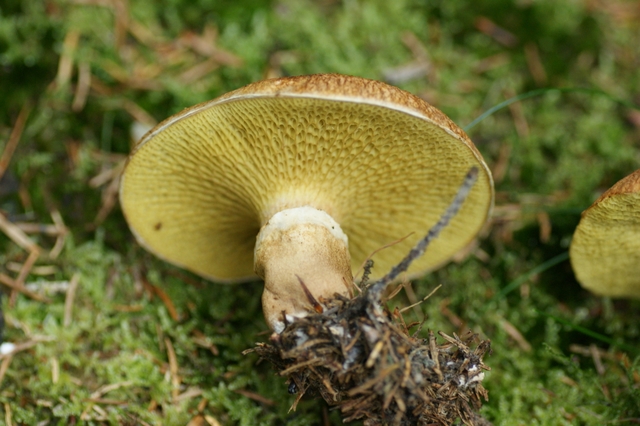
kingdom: Fungi
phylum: Basidiomycota
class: Agaricomycetes
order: Boletales
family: Suillaceae
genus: Suillus
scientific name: Suillus cavipes
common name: hulstokket slimrørhat
